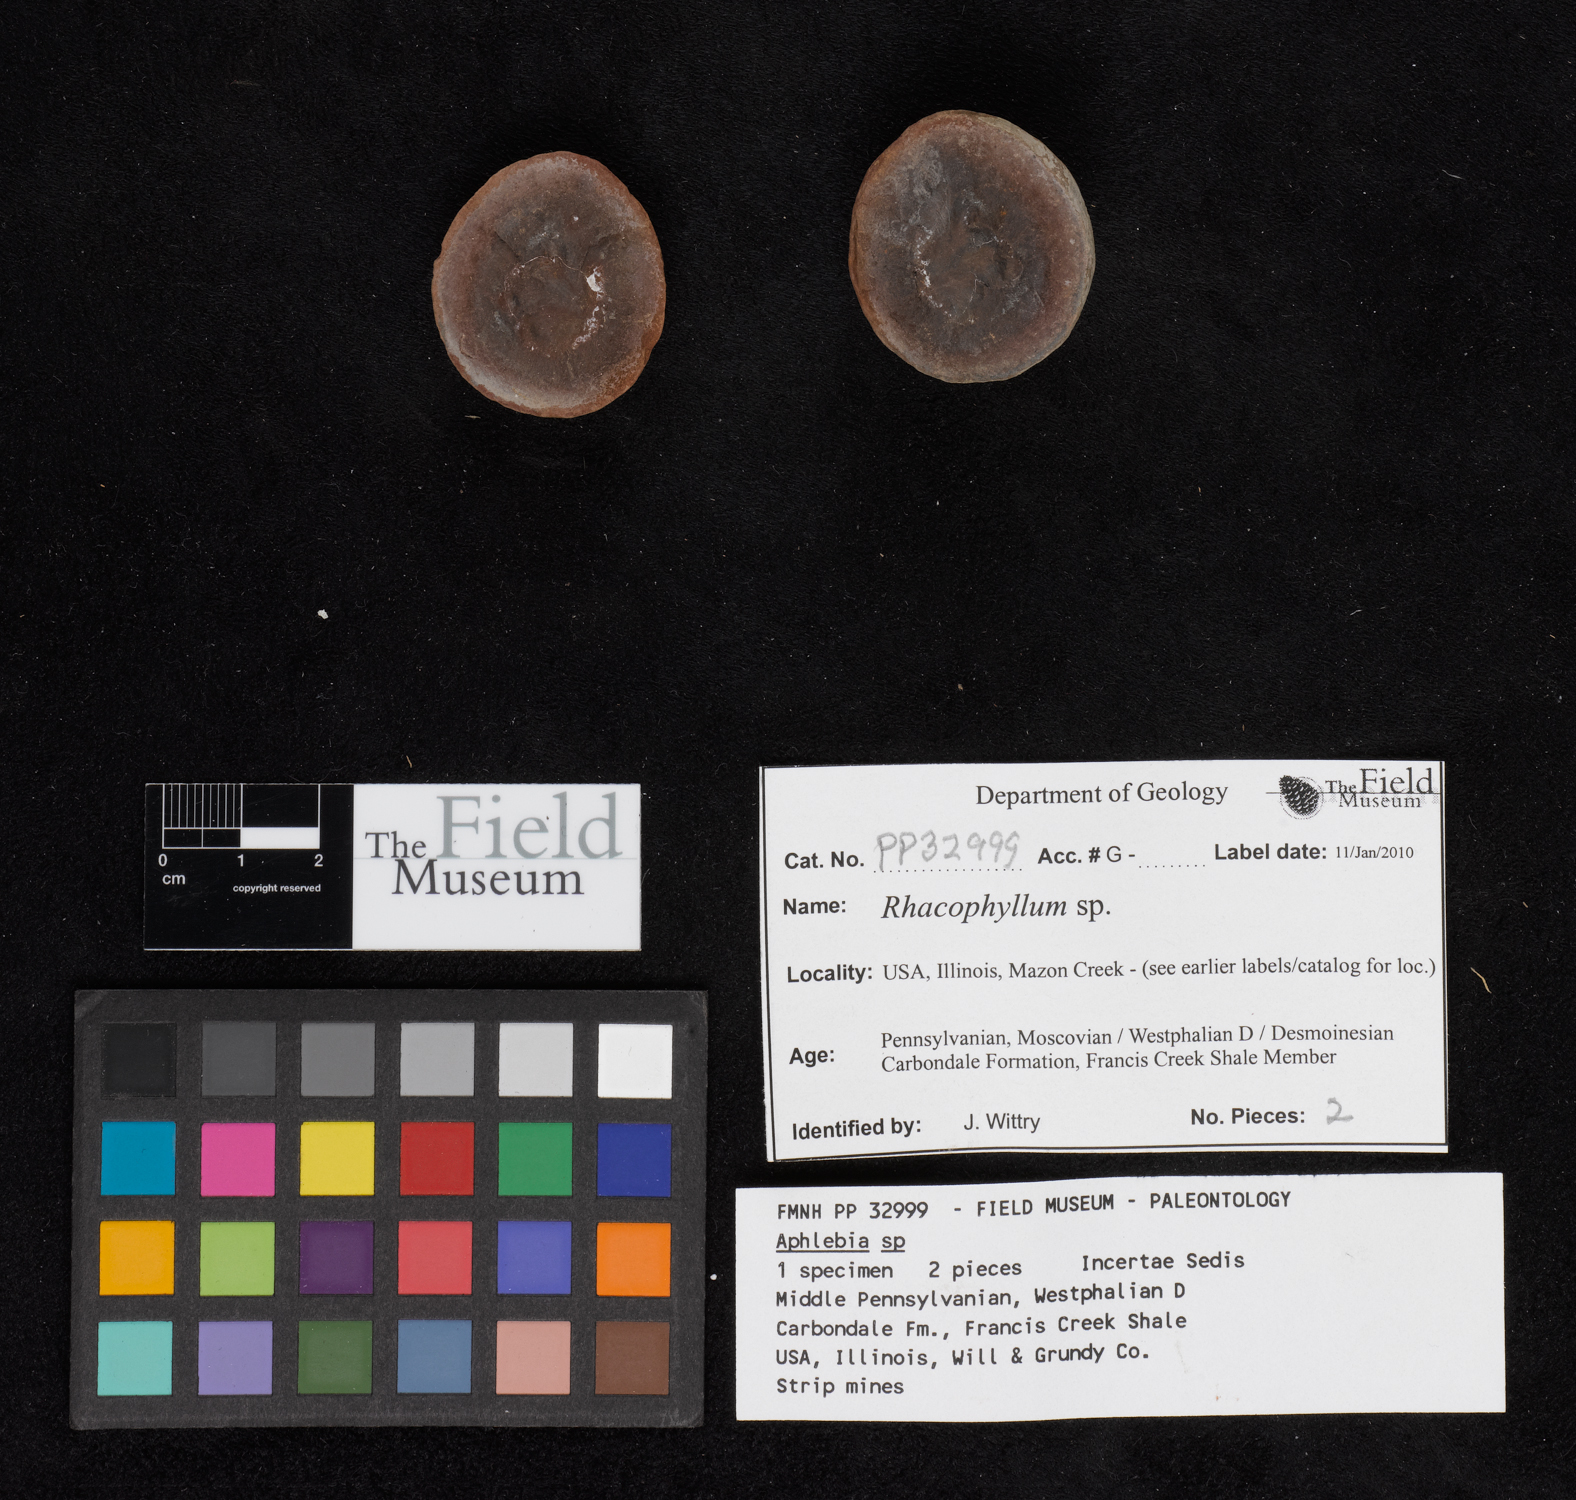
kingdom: Plantae
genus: Rhacophyllum
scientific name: Rhacophyllum
